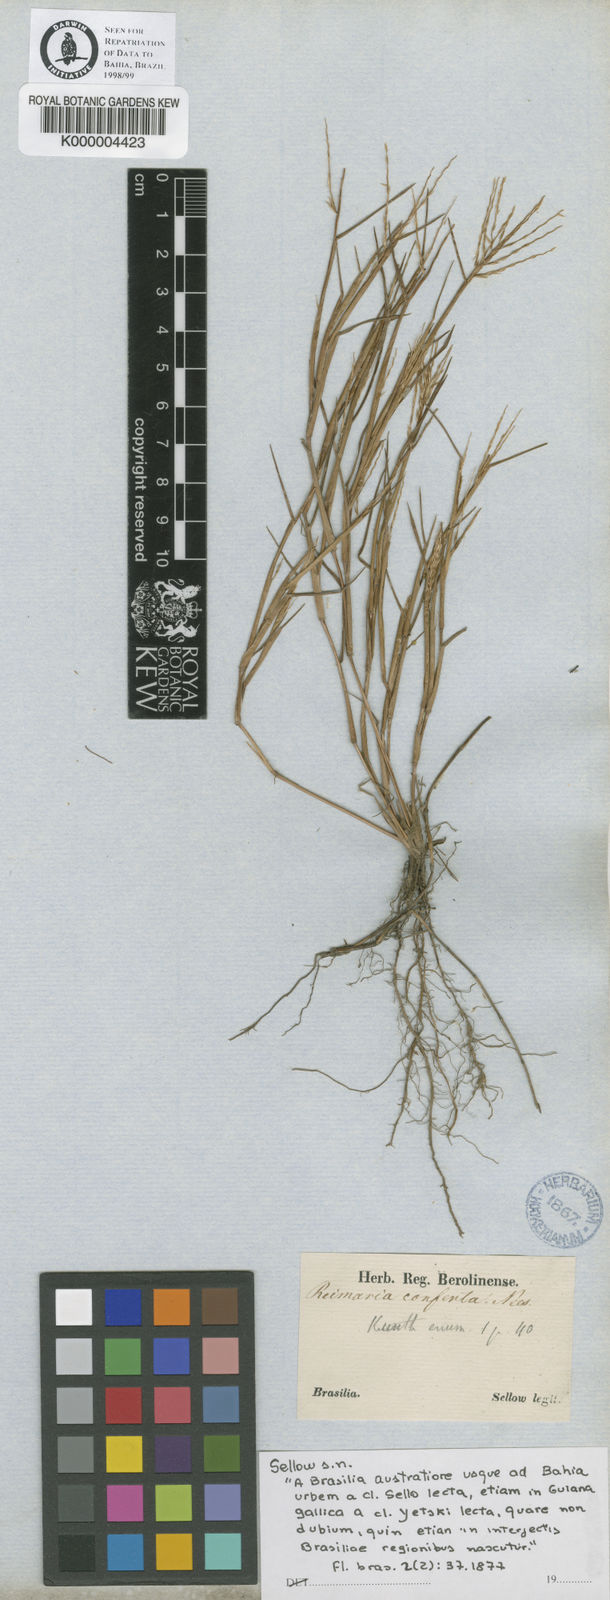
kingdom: Plantae
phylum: Tracheophyta
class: Liliopsida
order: Poales
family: Poaceae
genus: Paspalum
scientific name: Paspalum stagnophilum
